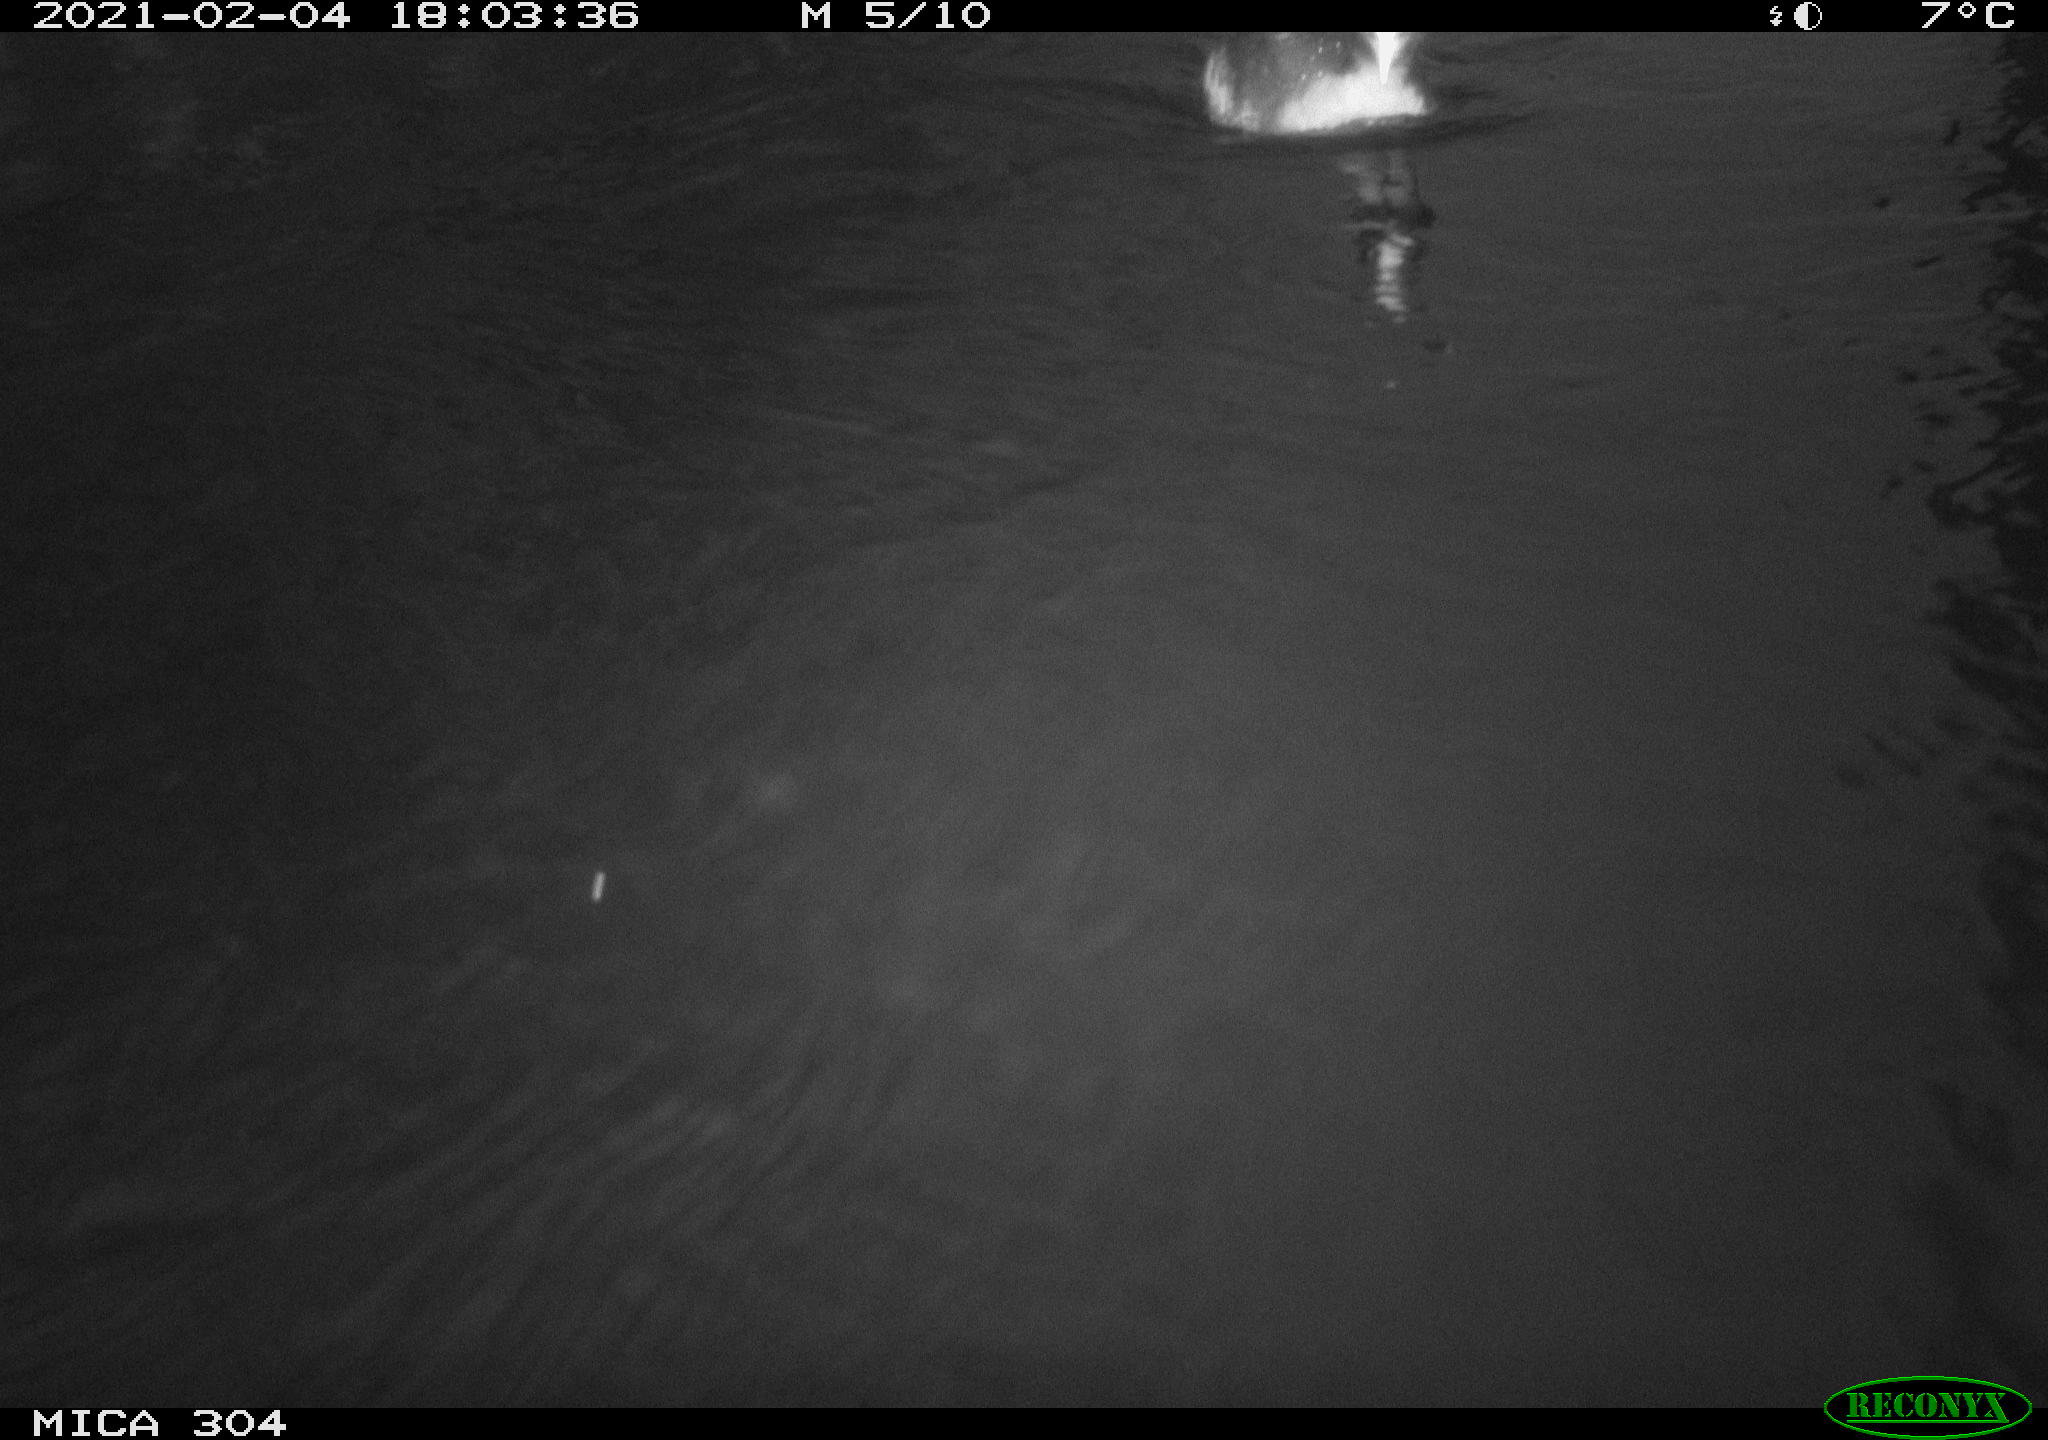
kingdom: Animalia
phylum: Chordata
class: Aves
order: Anseriformes
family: Anatidae
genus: Mareca
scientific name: Mareca strepera
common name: Gadwall
